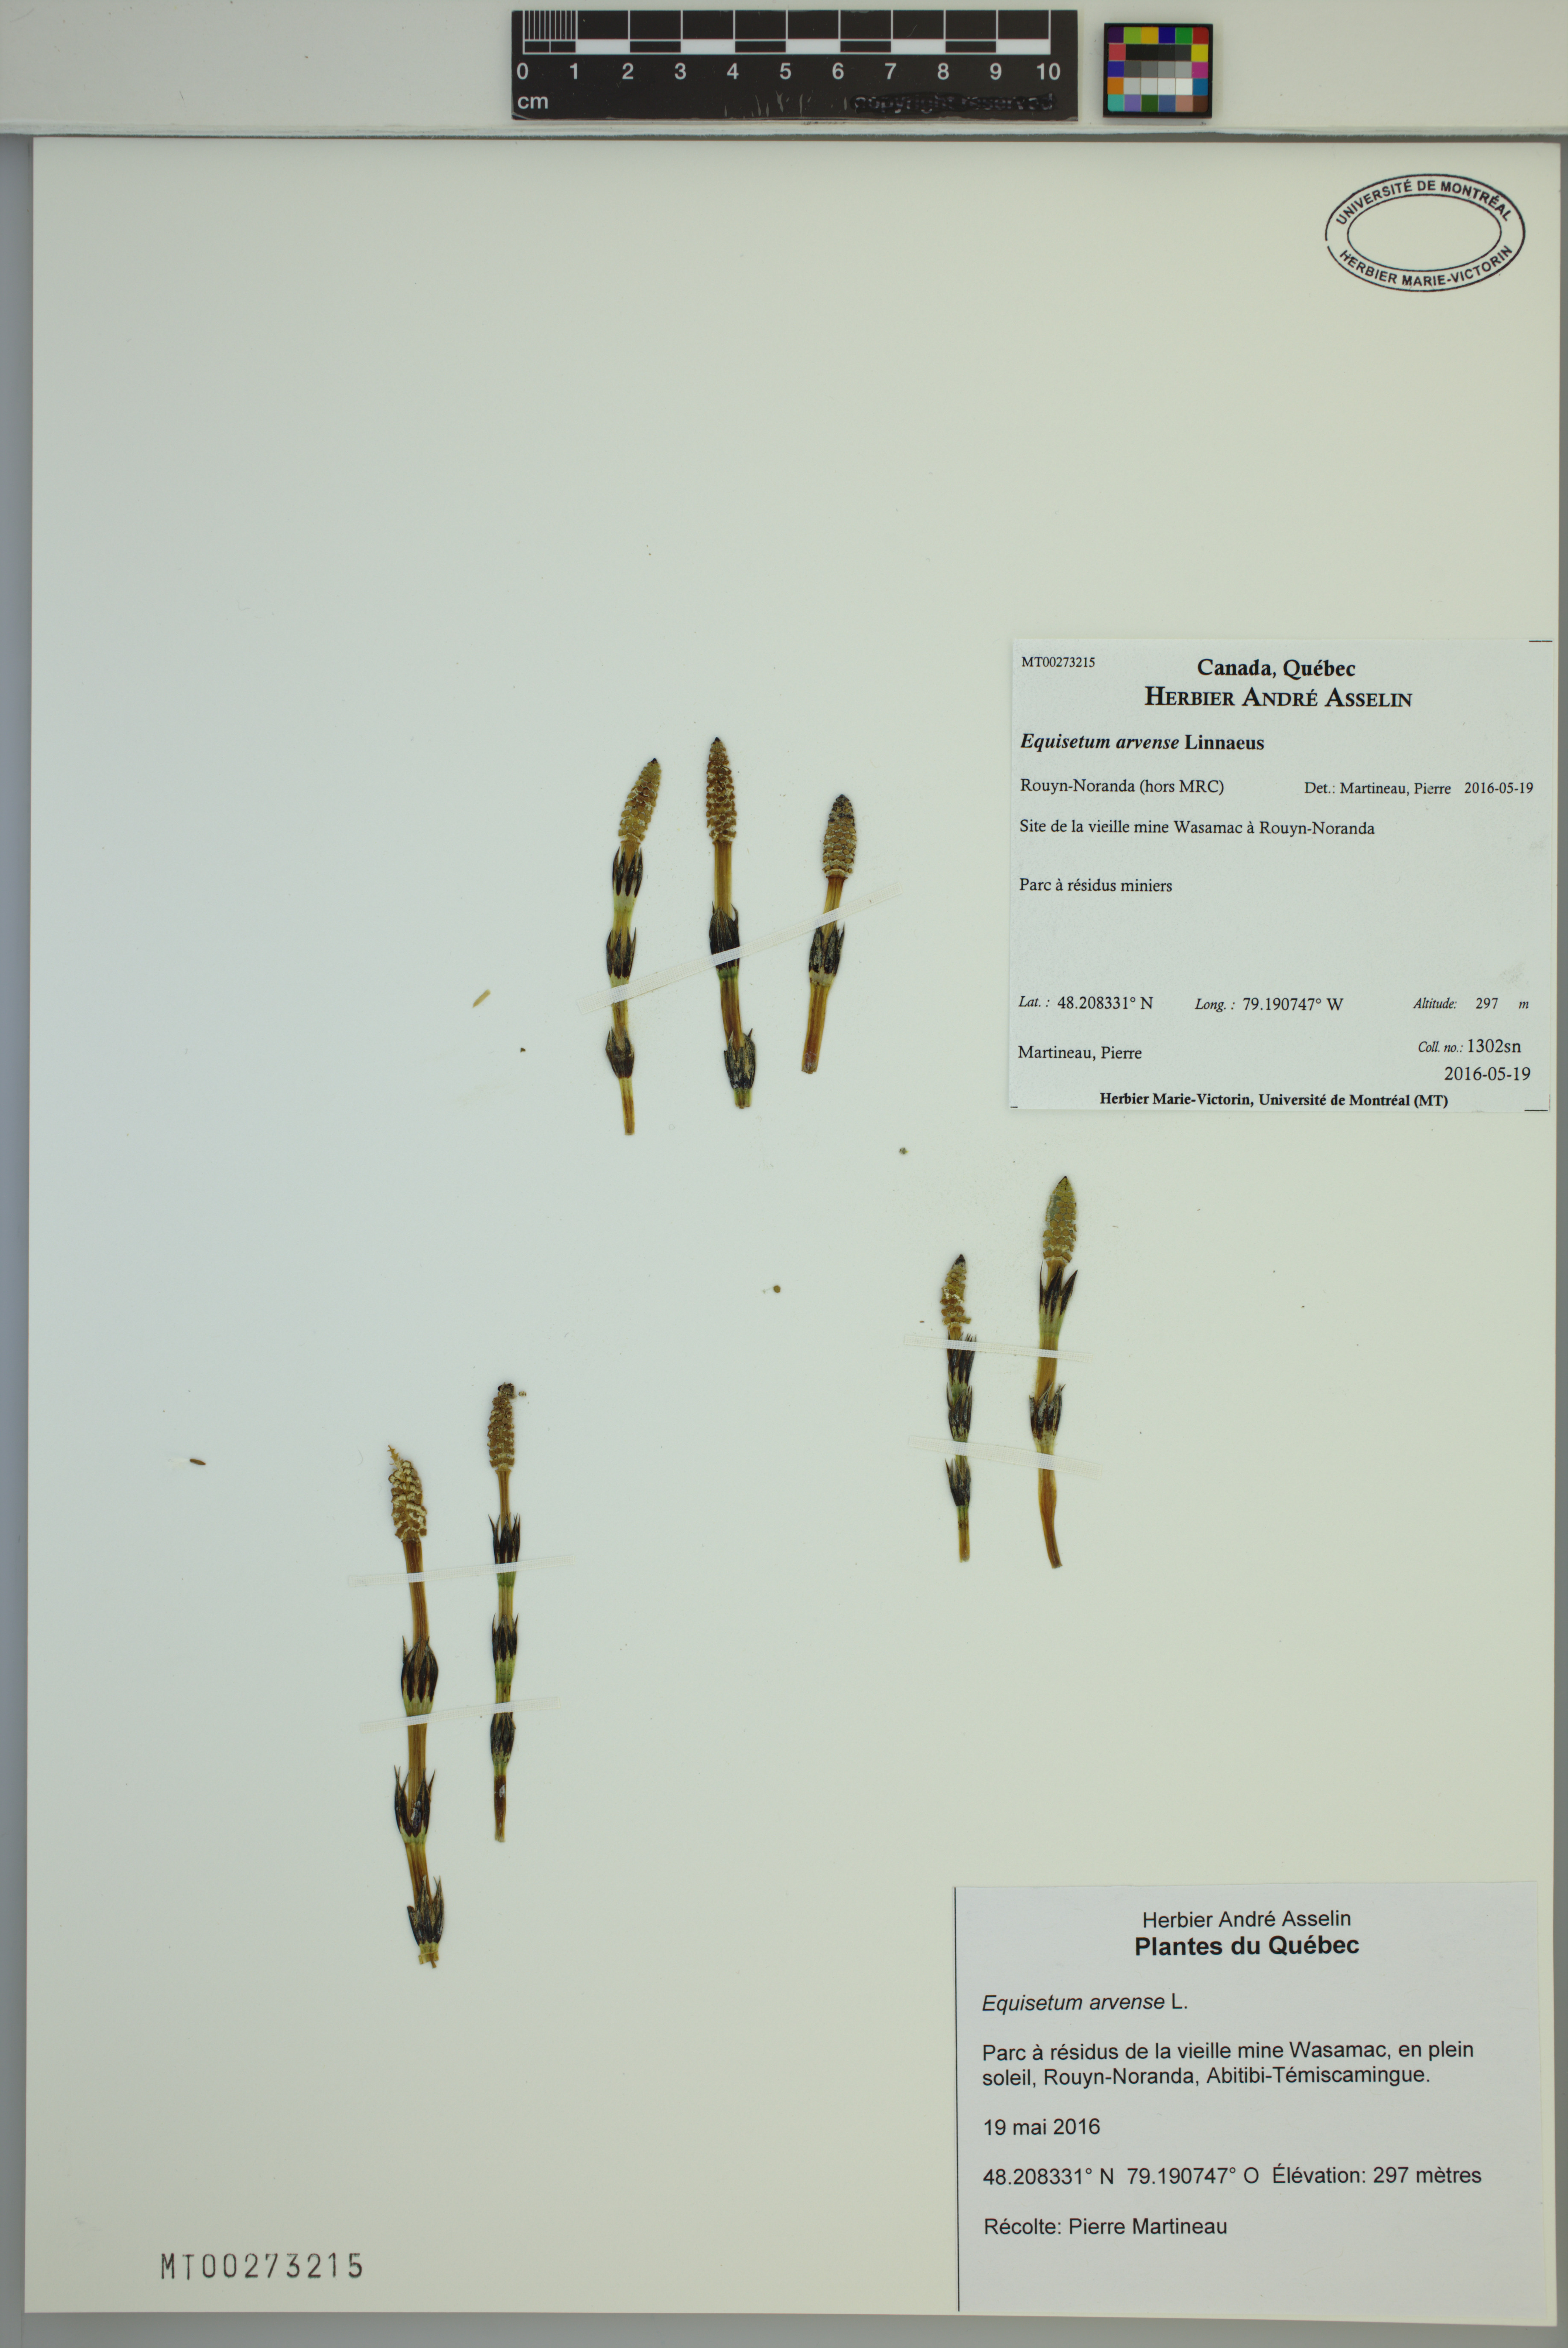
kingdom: Plantae
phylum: Tracheophyta
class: Polypodiopsida
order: Equisetales
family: Equisetaceae
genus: Equisetum
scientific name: Equisetum arvense
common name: Field horsetail
